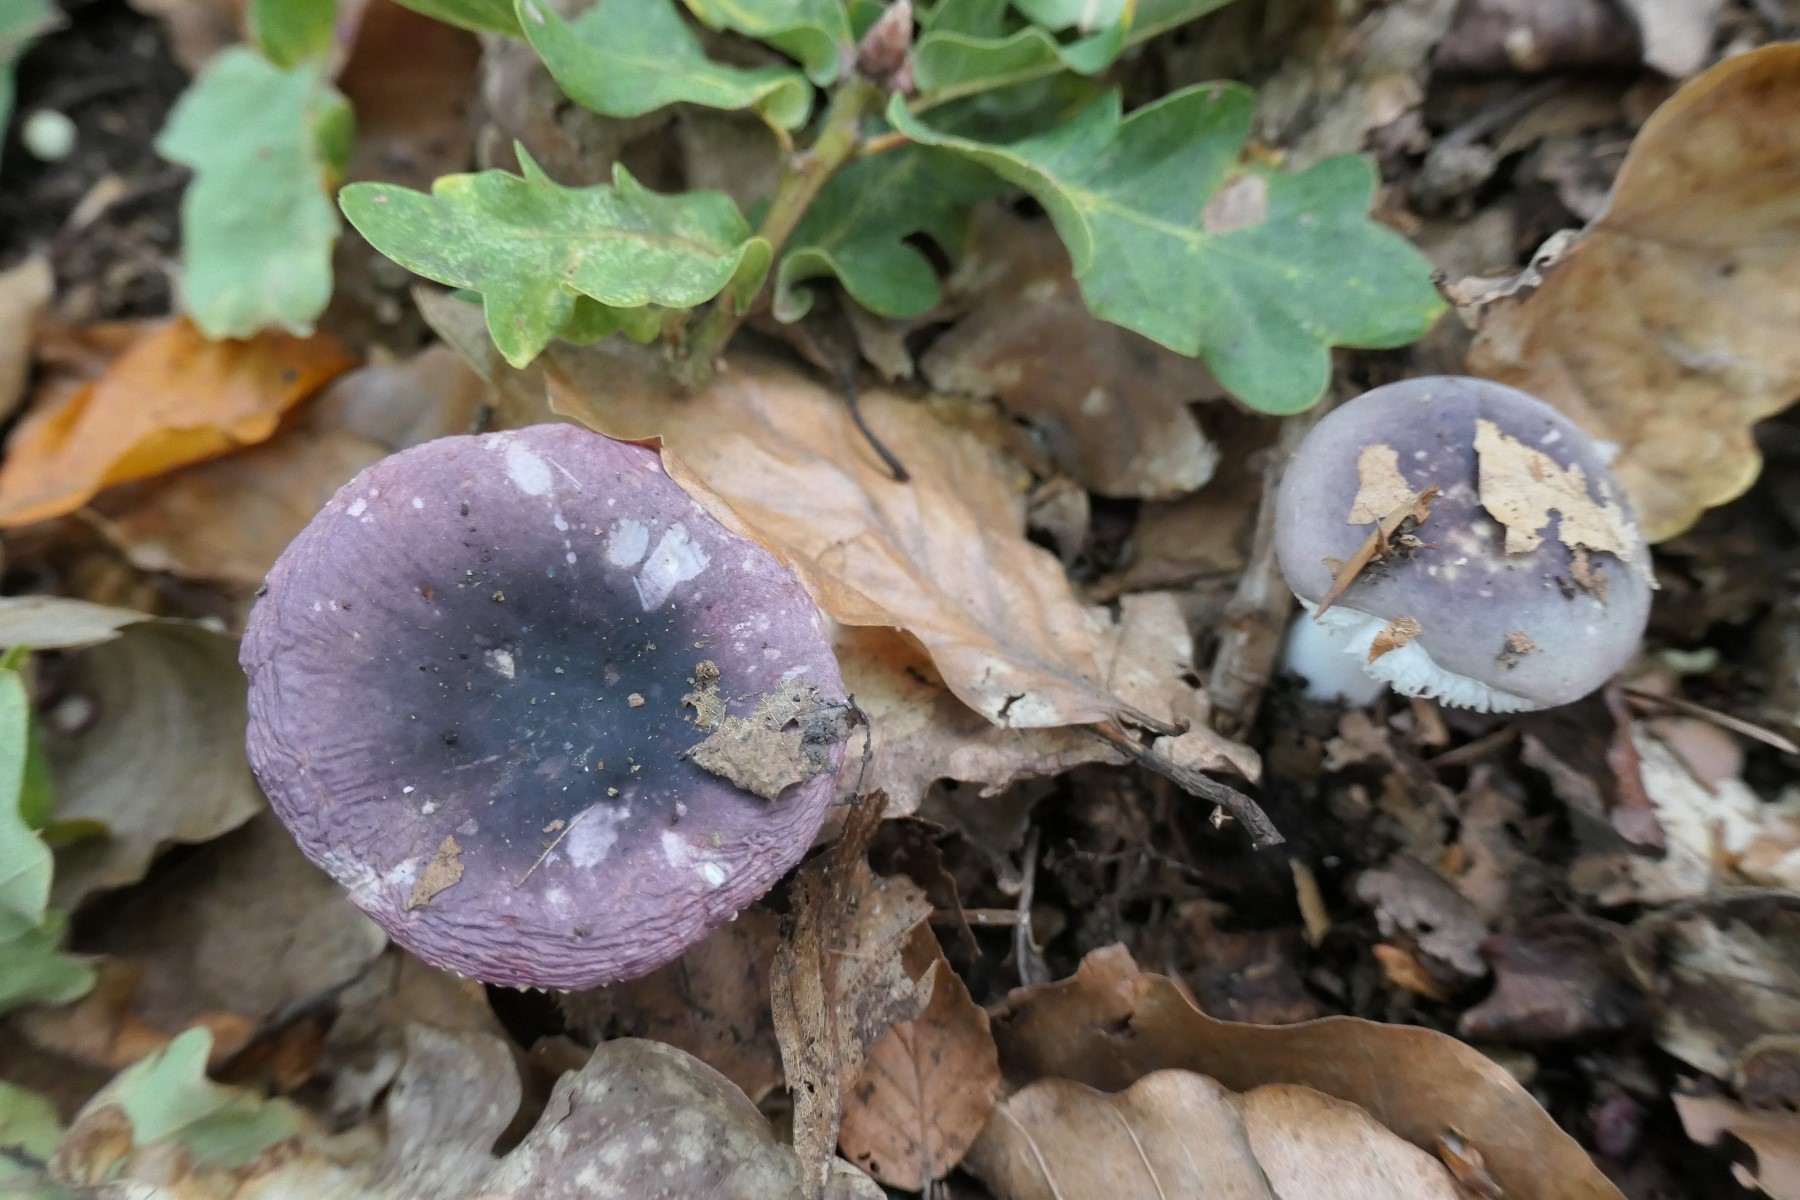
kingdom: Fungi
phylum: Basidiomycota
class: Agaricomycetes
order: Russulales
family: Russulaceae
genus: Russula
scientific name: Russula fragilis
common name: savbladet skørhat
